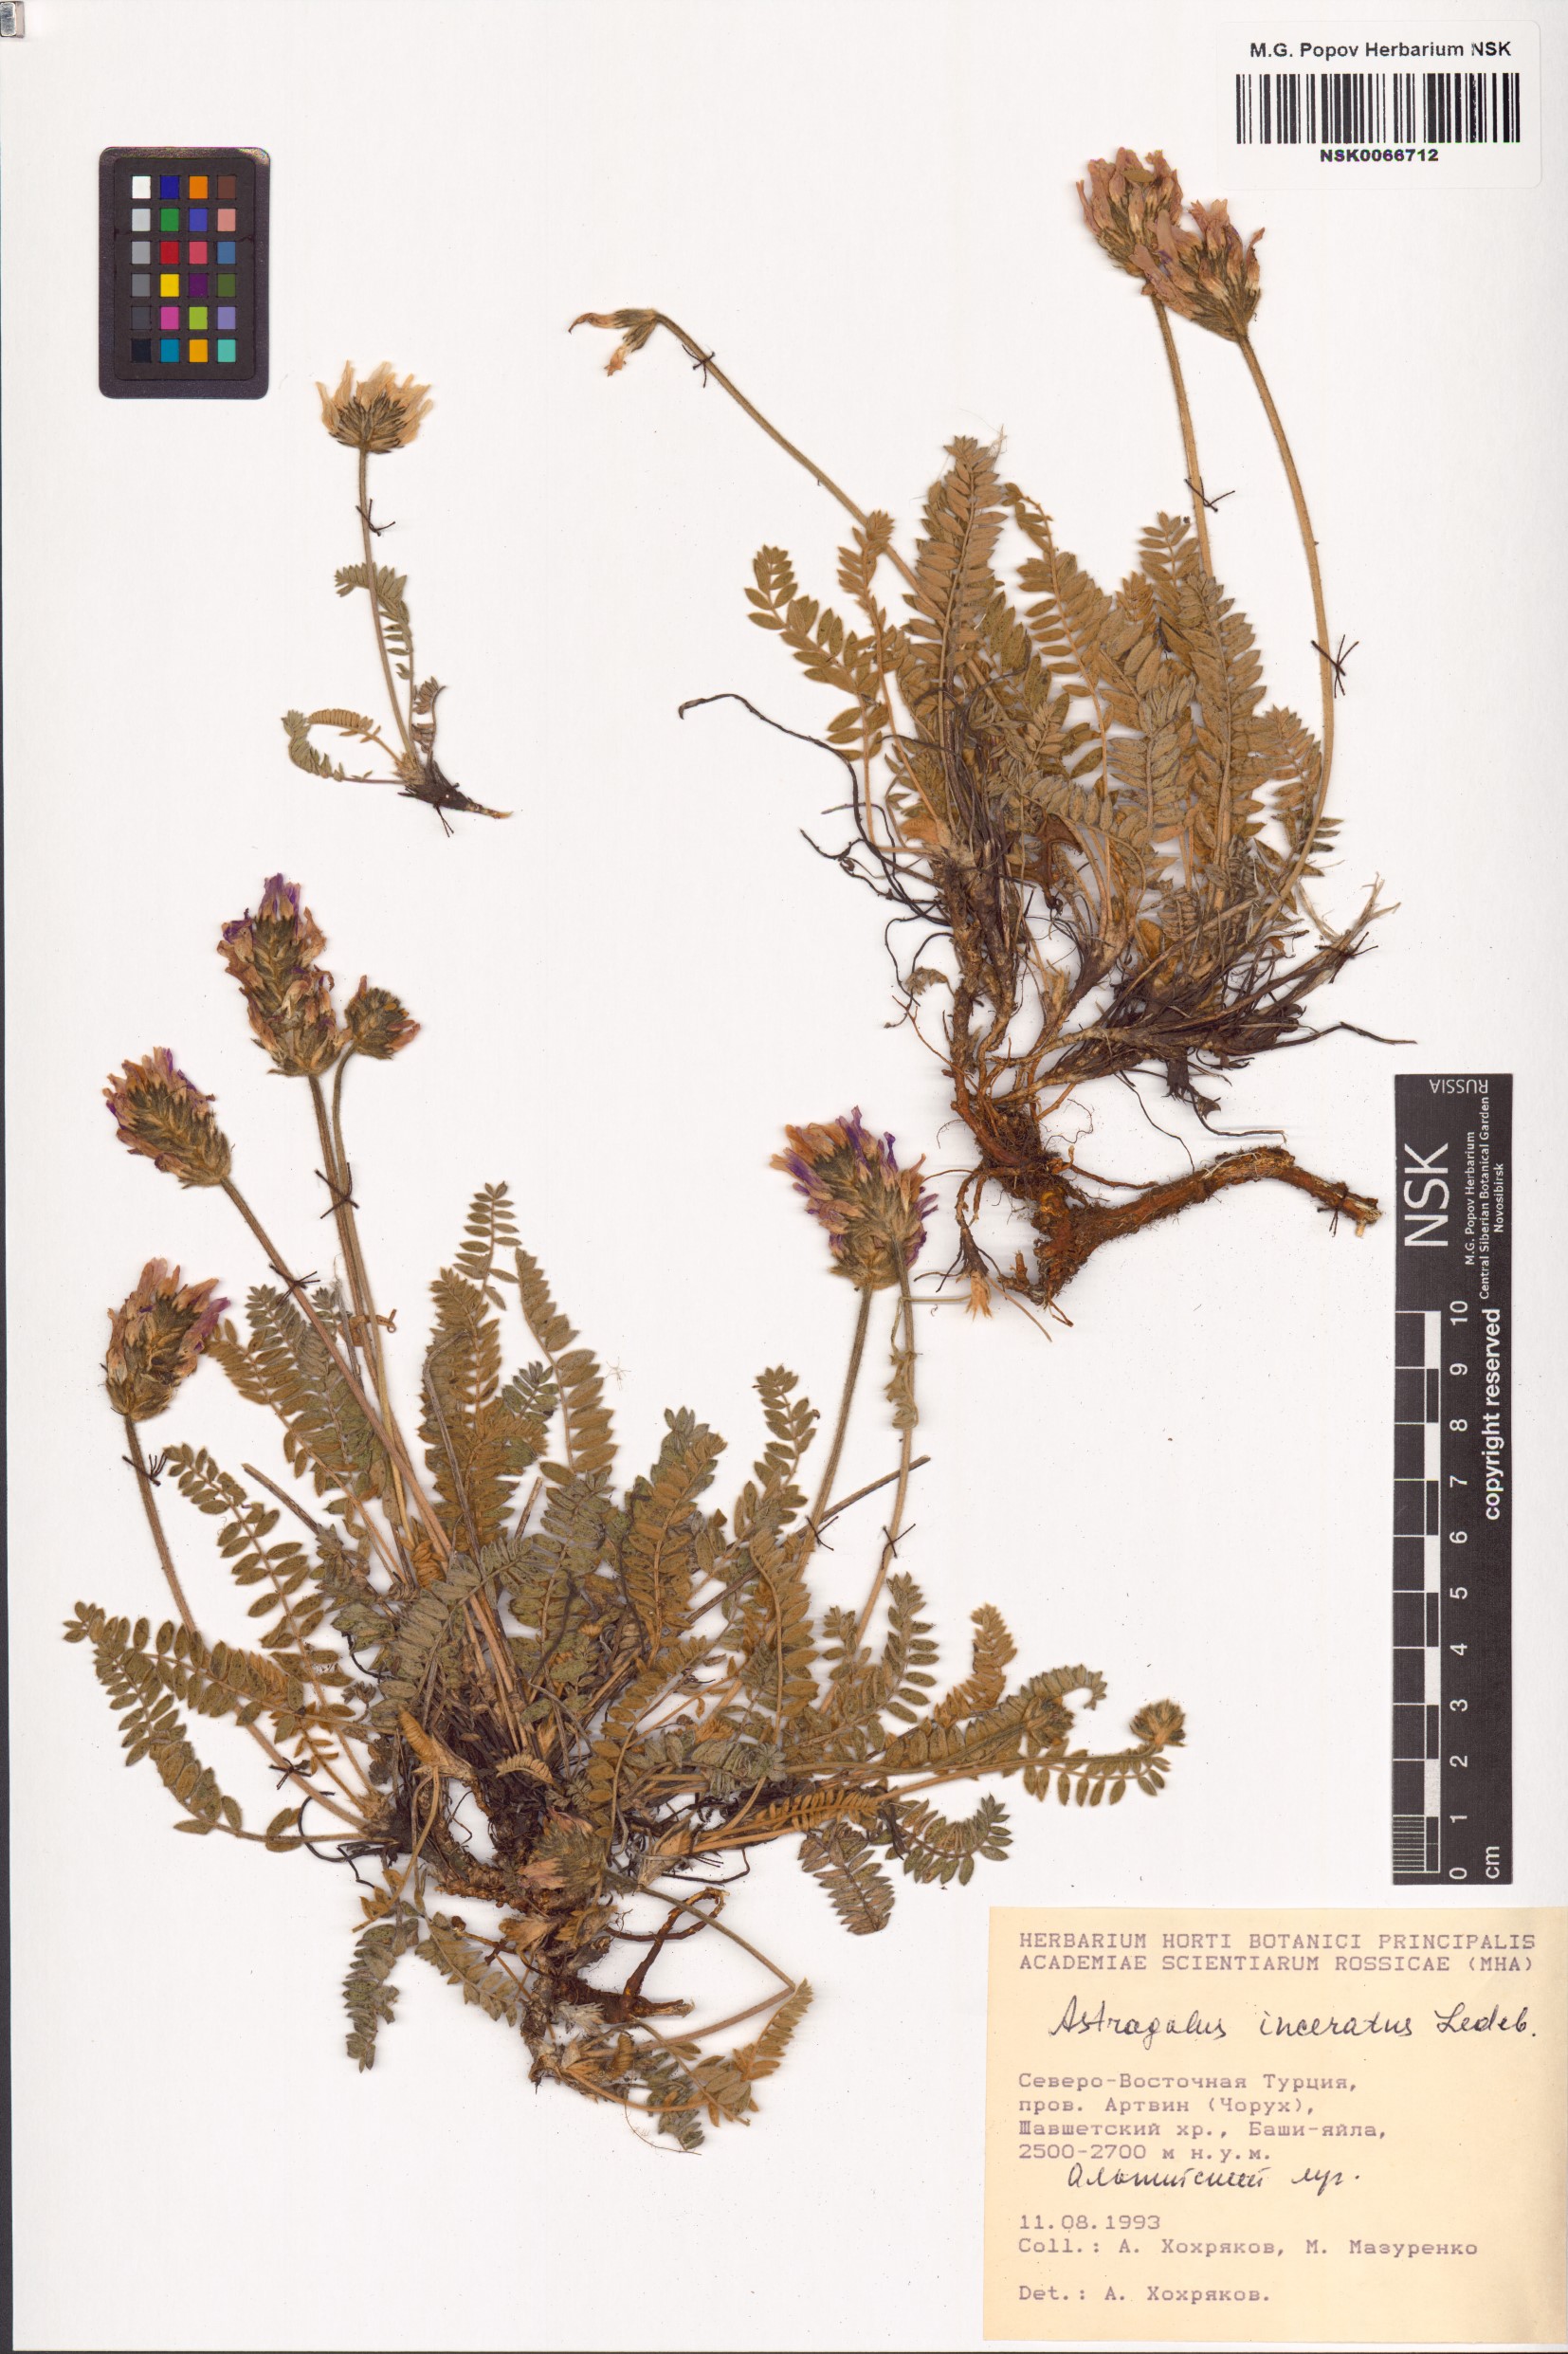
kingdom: Plantae
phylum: Tracheophyta
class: Magnoliopsida
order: Fabales
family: Fabaceae
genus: Astragalus
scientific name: Astragalus incertus
